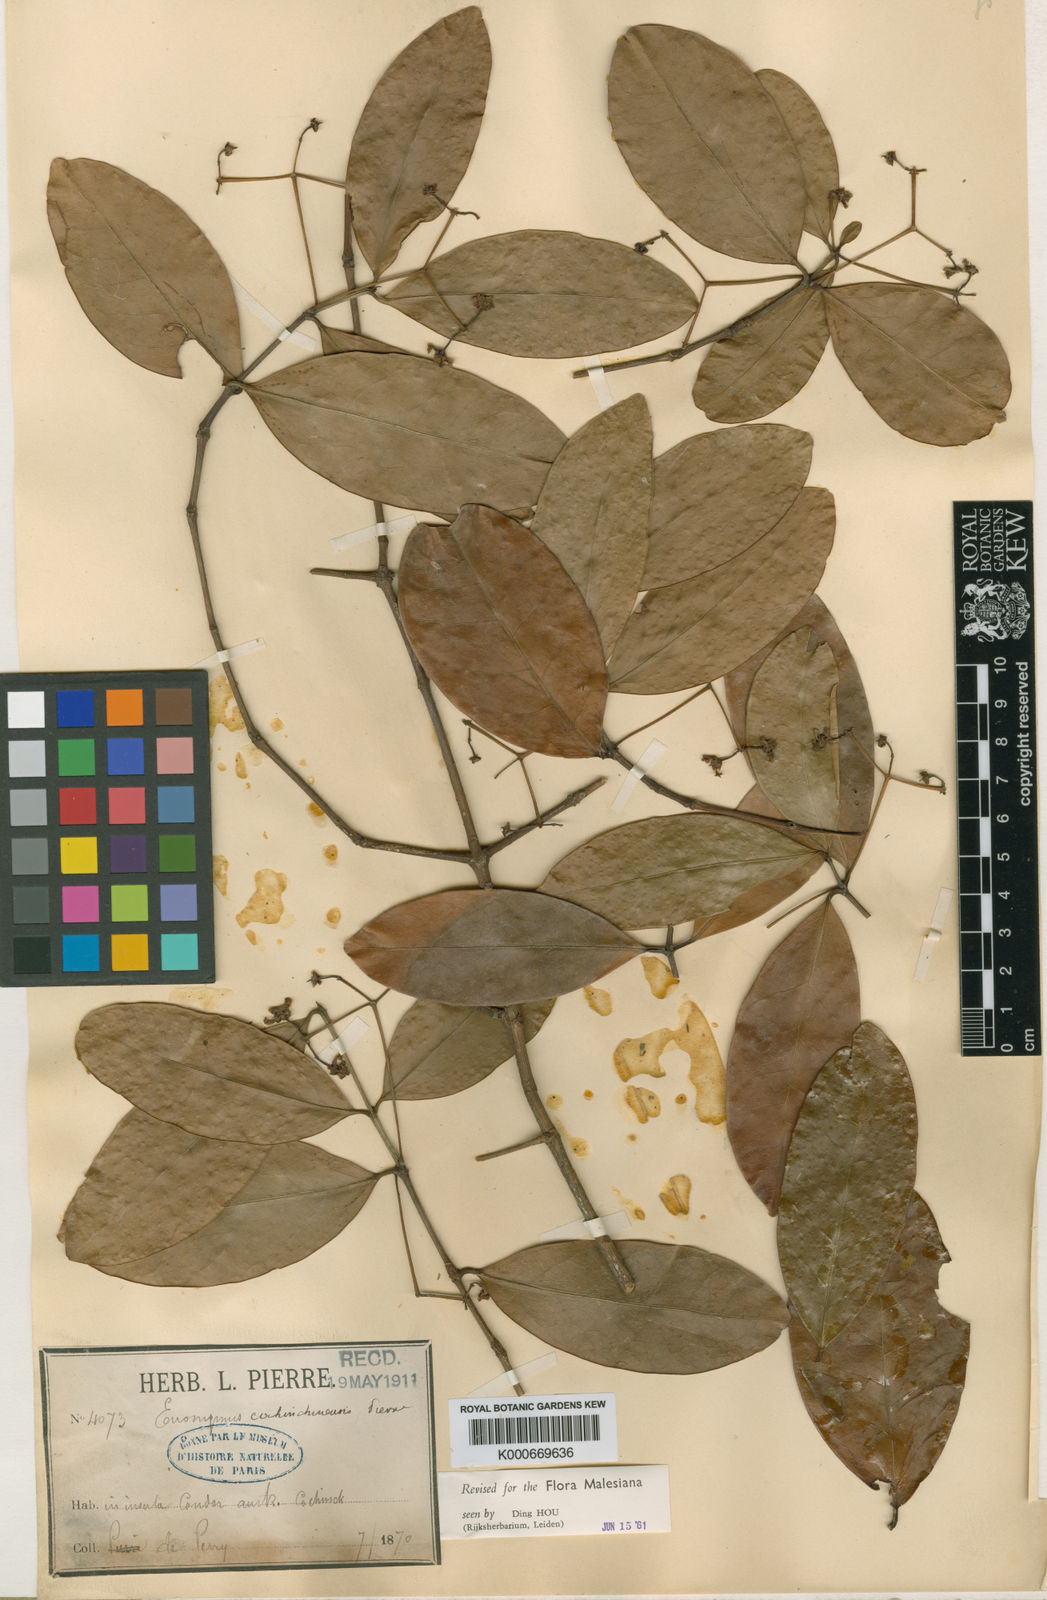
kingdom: Plantae
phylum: Tracheophyta
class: Magnoliopsida
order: Celastrales
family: Celastraceae
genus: Euonymus
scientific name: Euonymus cochinchinensis
